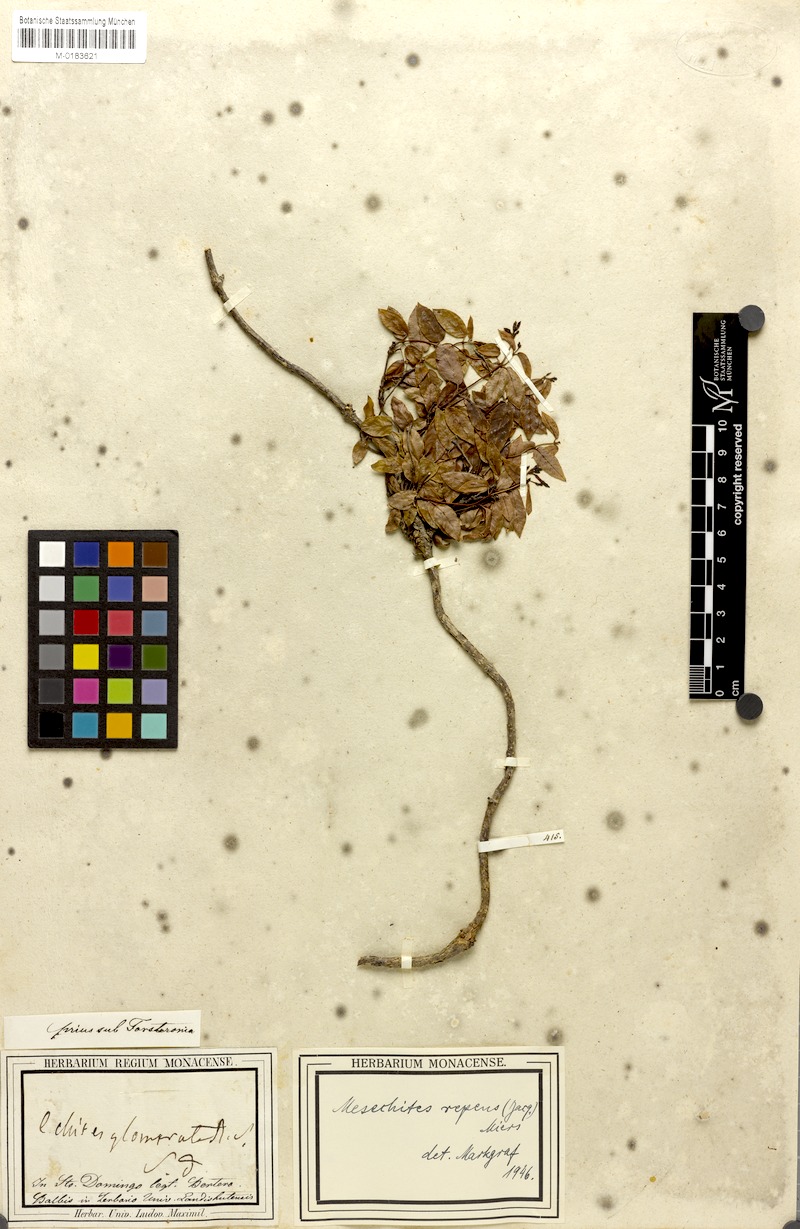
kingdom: Plantae
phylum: Tracheophyta
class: Magnoliopsida
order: Gentianales
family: Apocynaceae
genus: Mesechites
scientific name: Mesechites repens
